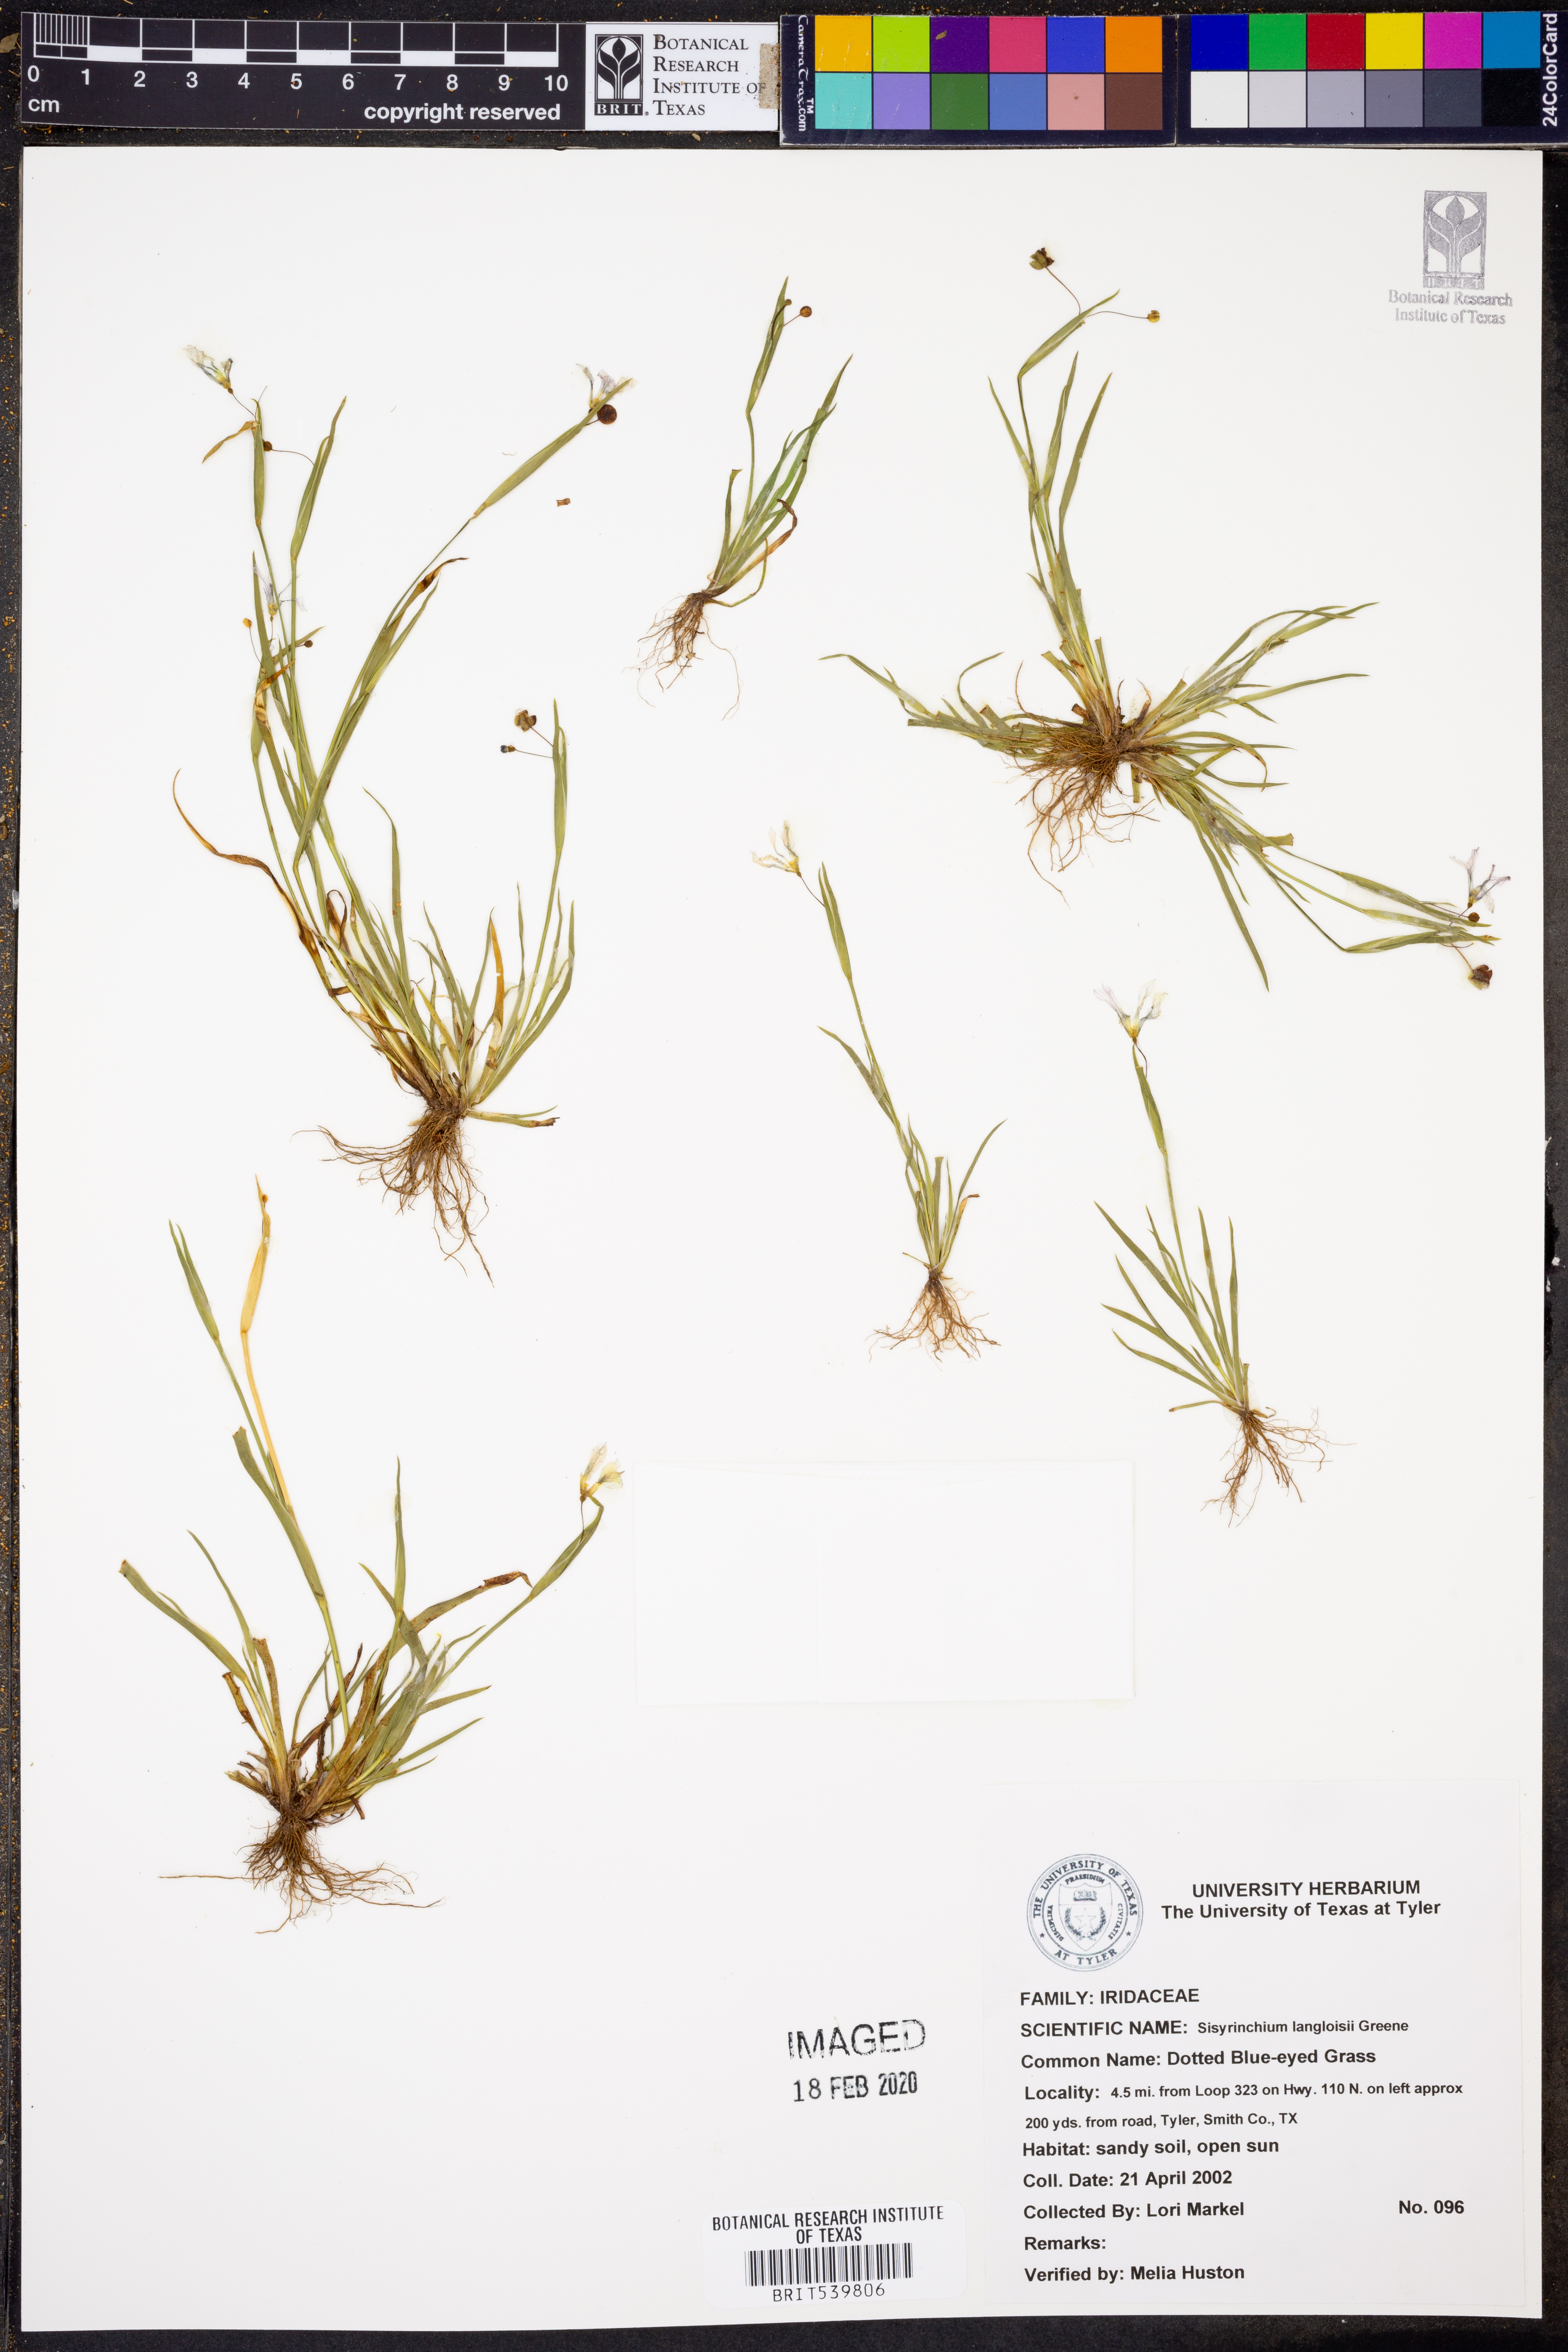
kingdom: Plantae
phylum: Tracheophyta
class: Liliopsida
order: Asparagales
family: Iridaceae
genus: Sisyrinchium
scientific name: Sisyrinchium langloisii
